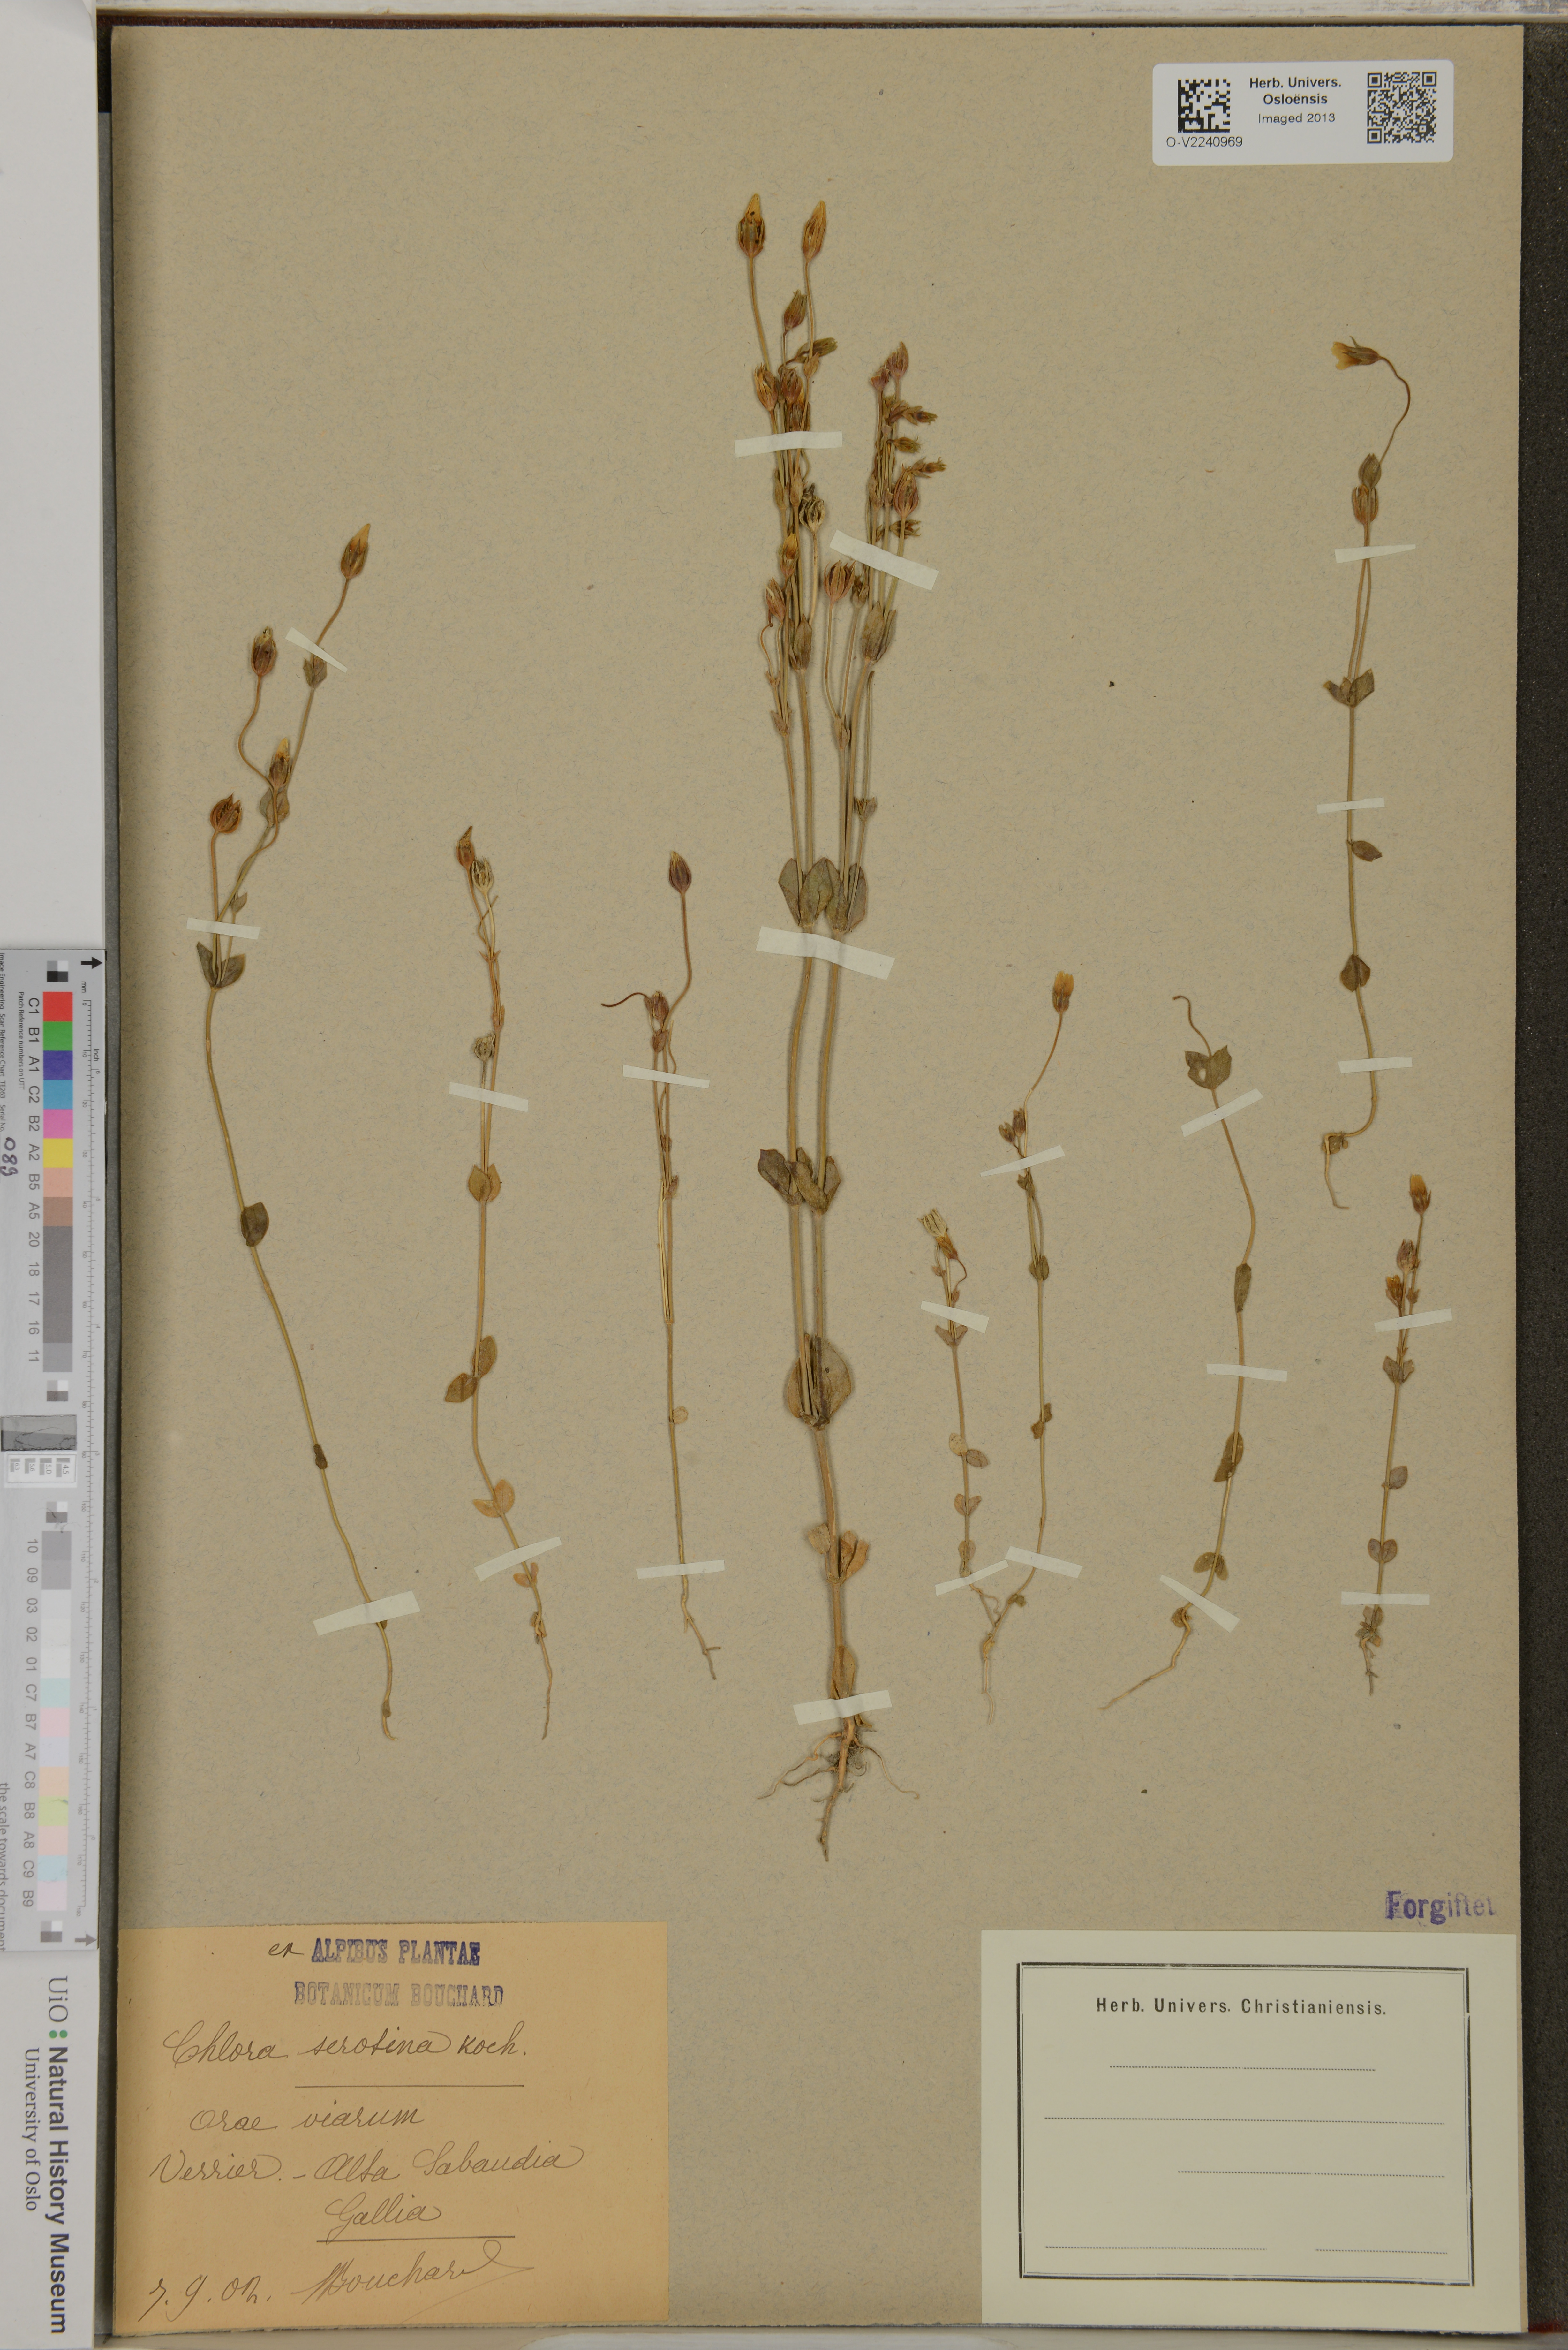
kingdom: Plantae
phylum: Tracheophyta
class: Magnoliopsida
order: Gentianales
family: Gentianaceae
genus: Blackstonia
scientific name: Blackstonia acuminata
